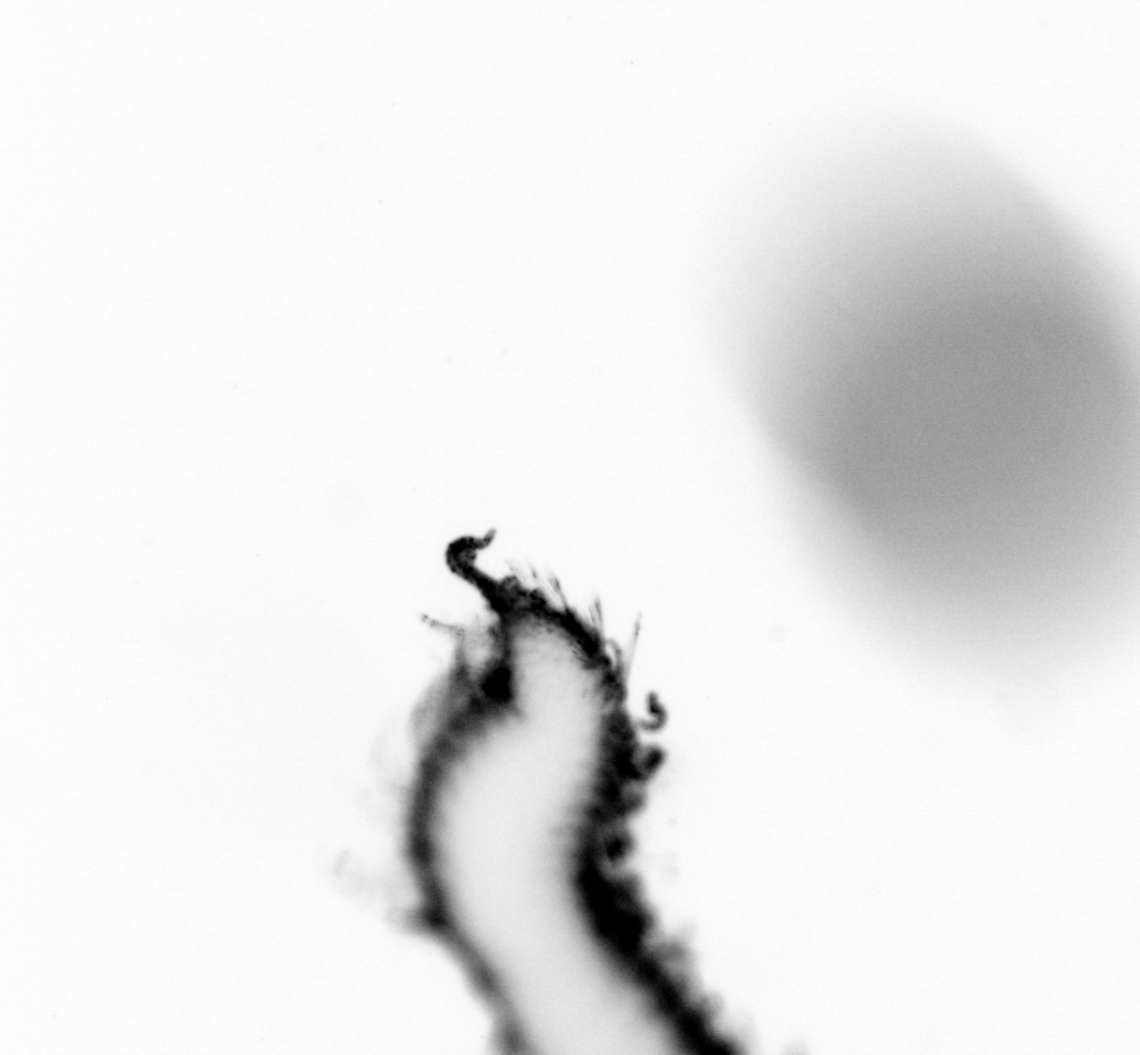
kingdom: Animalia
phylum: Annelida
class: Polychaeta
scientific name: Polychaeta
